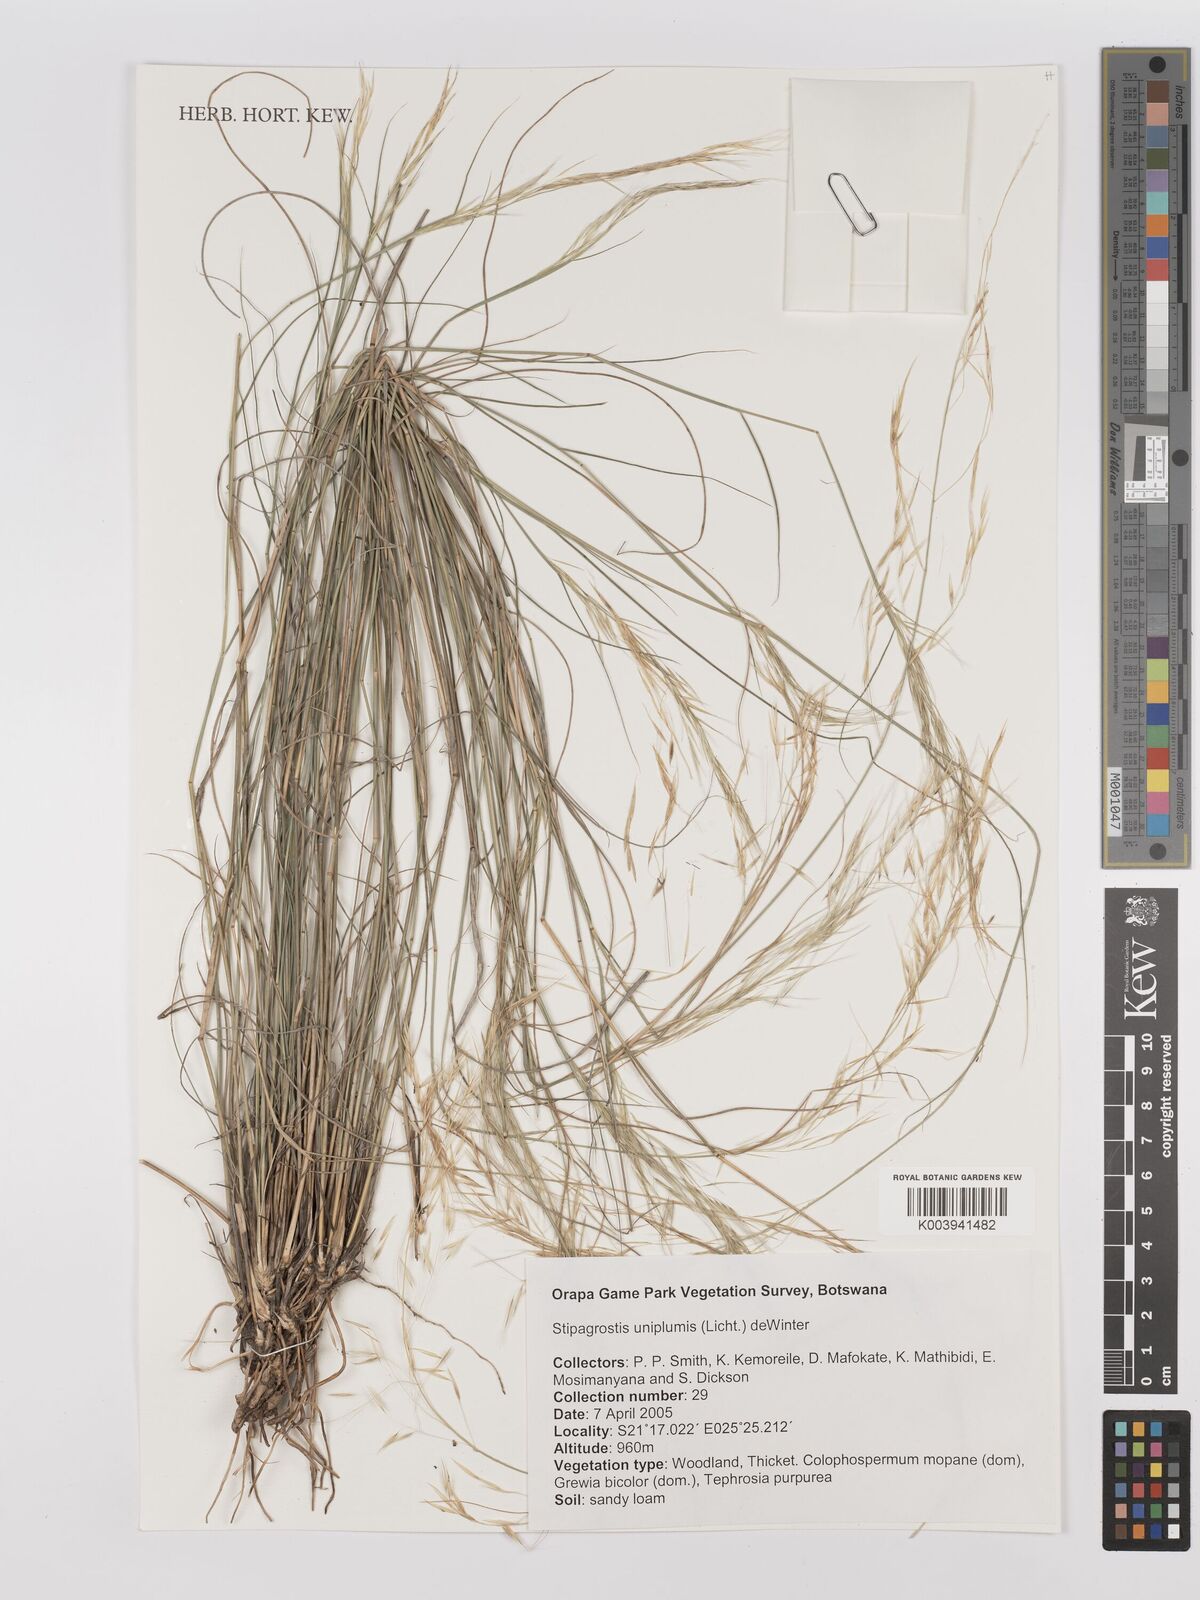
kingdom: Plantae
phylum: Tracheophyta
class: Liliopsida
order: Poales
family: Poaceae
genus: Stipagrostis
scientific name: Stipagrostis uniplumis
